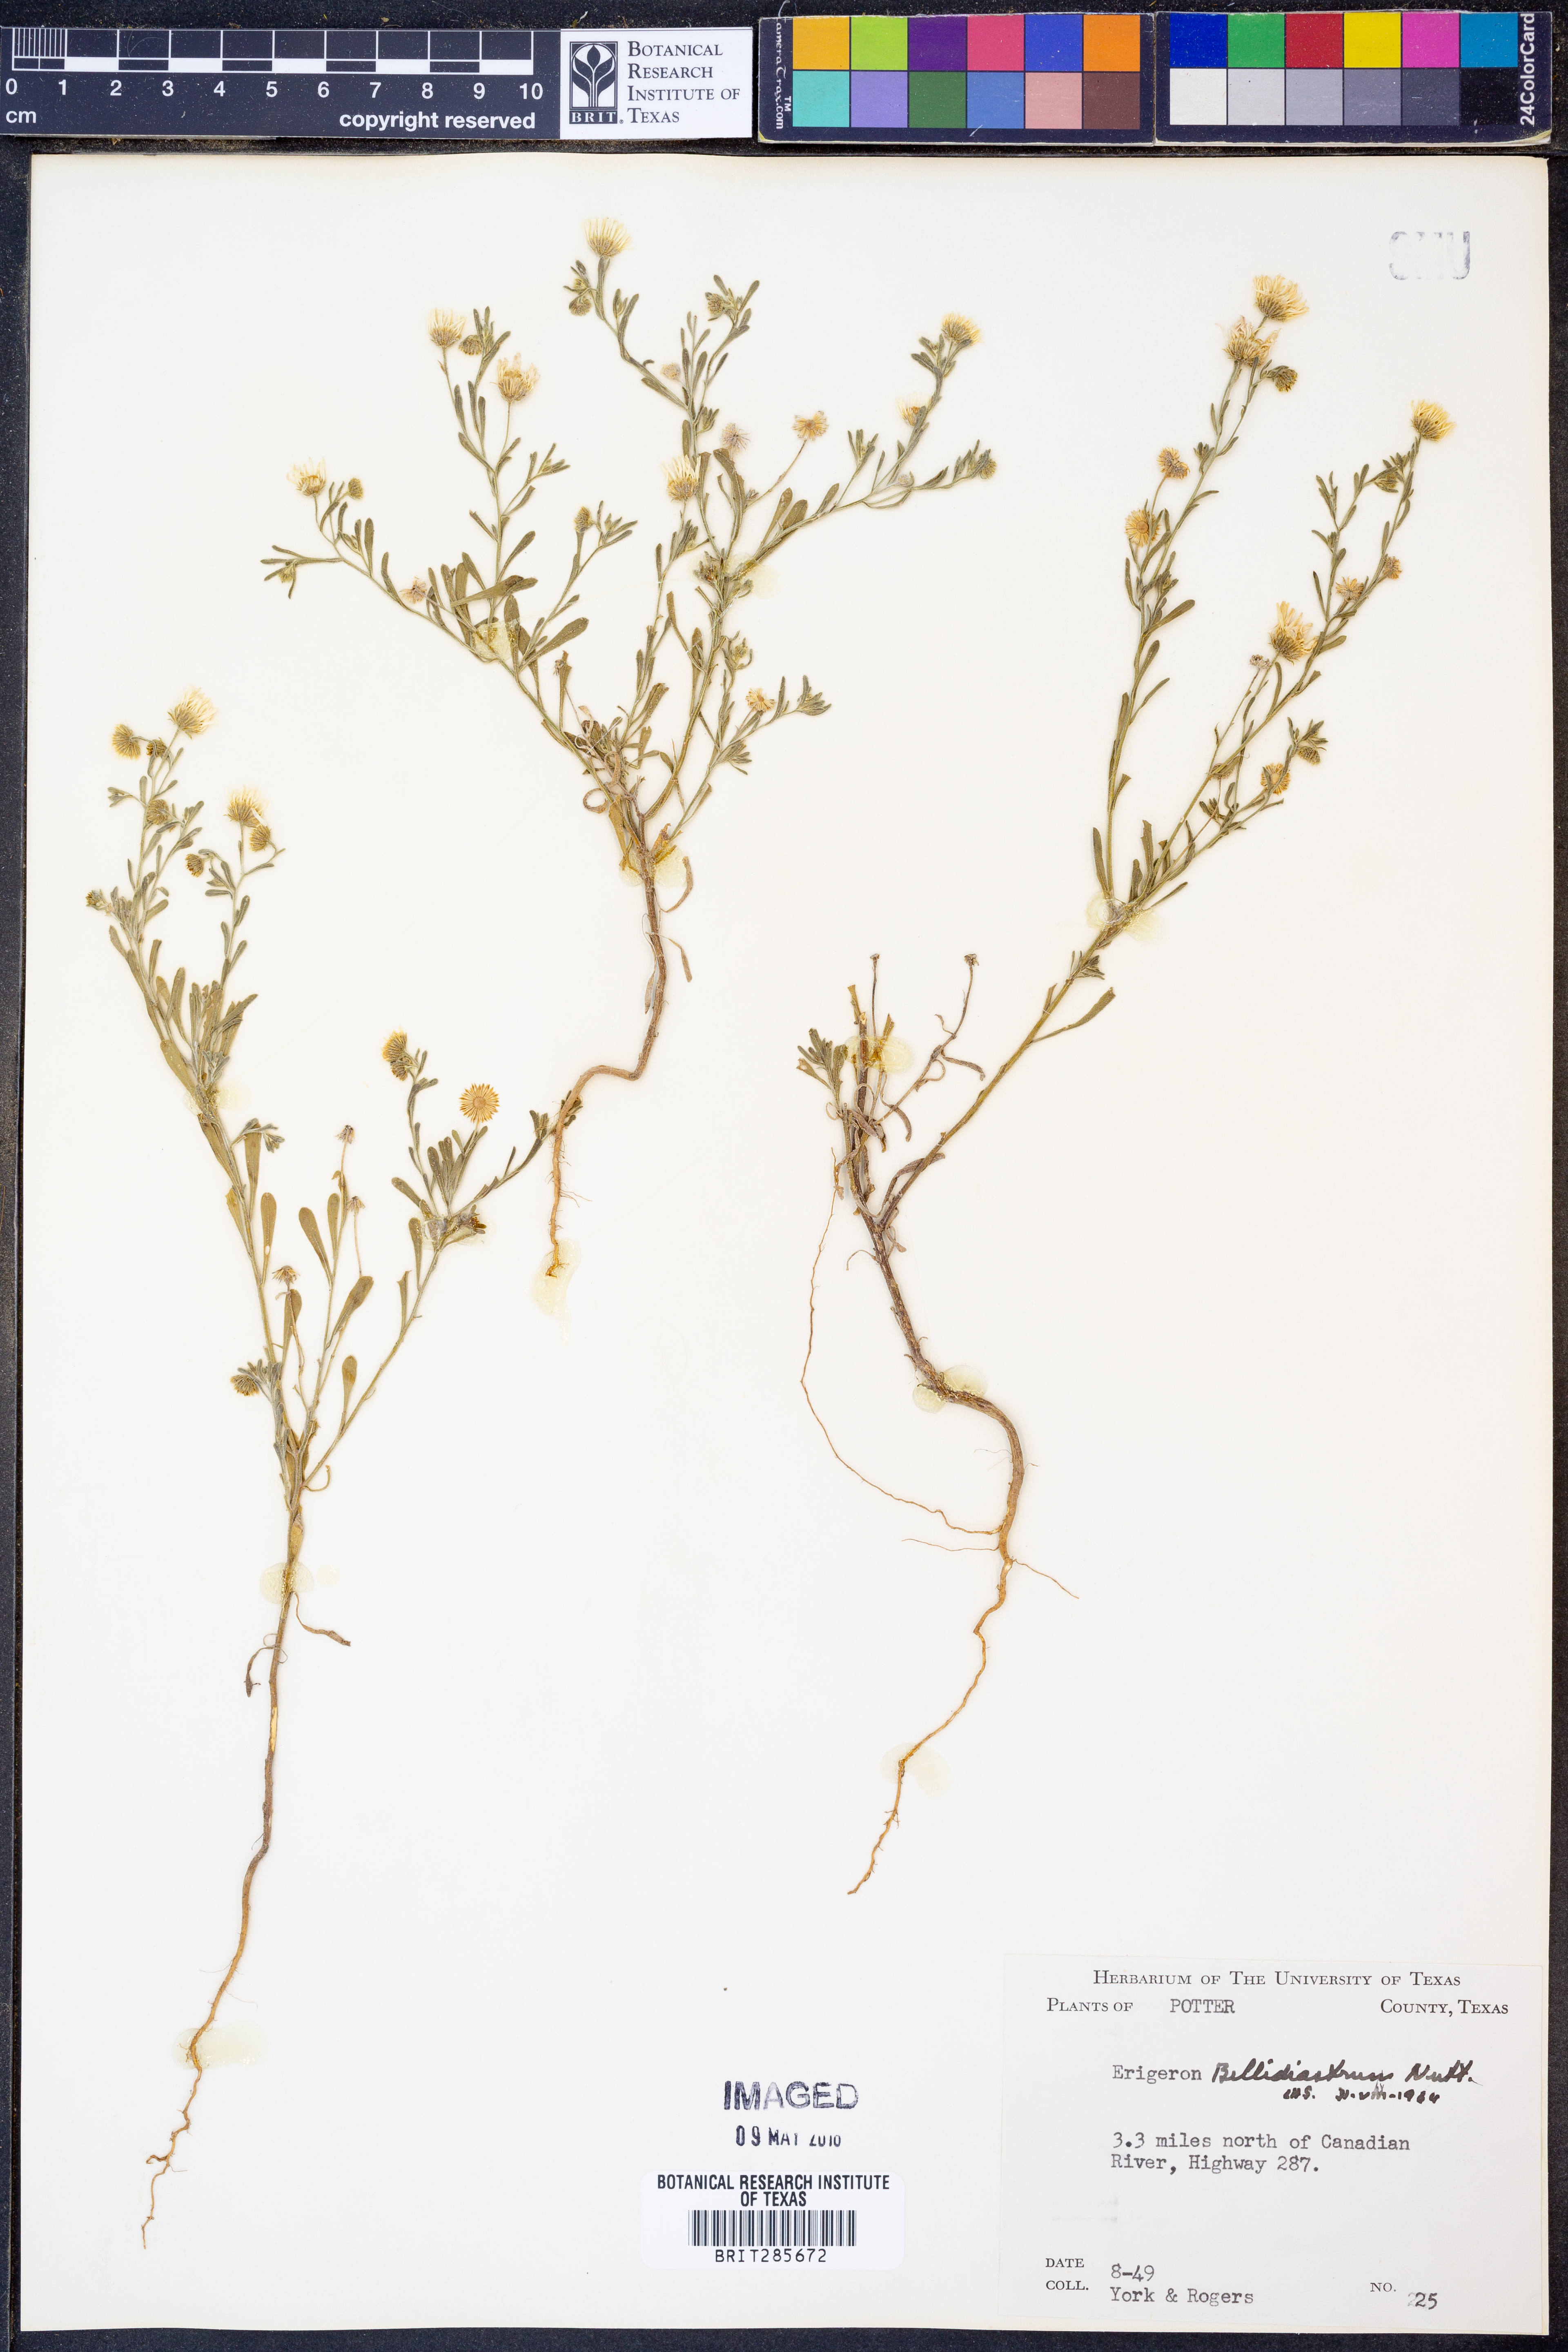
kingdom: Plantae
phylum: Tracheophyta
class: Magnoliopsida
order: Asterales
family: Asteraceae
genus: Erigeron
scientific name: Erigeron bellidiastrum
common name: Sand fleabane
